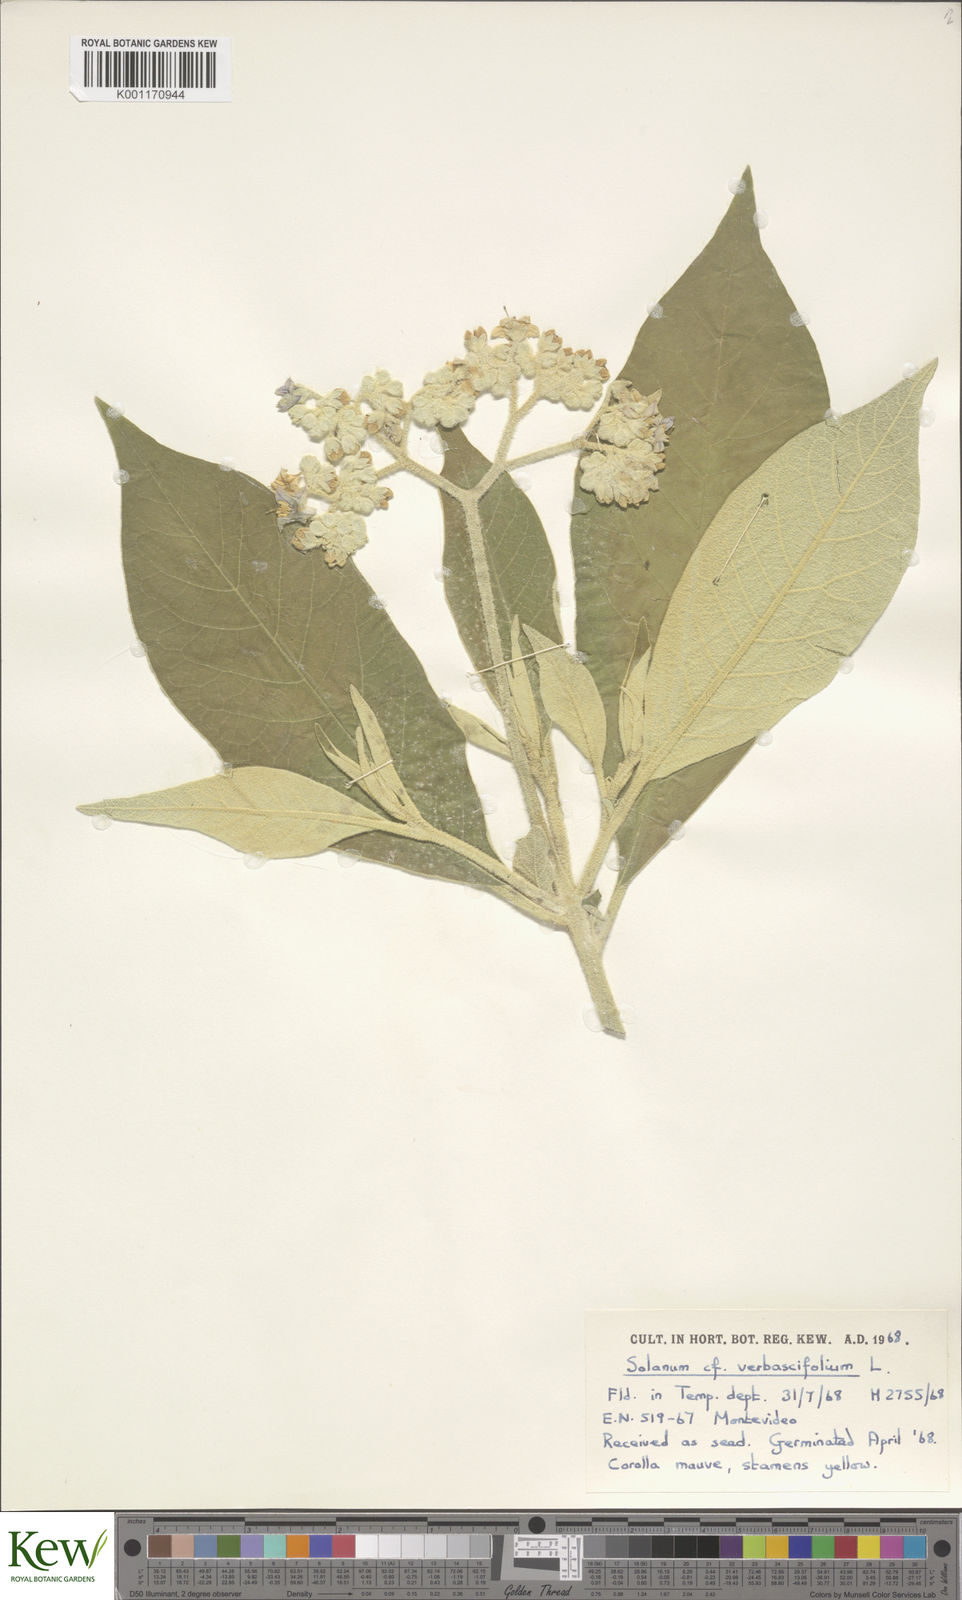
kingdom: Plantae
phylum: Tracheophyta
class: Magnoliopsida
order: Solanales
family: Solanaceae
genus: Solanum
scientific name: Solanum donianum
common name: Mullein nightshade
